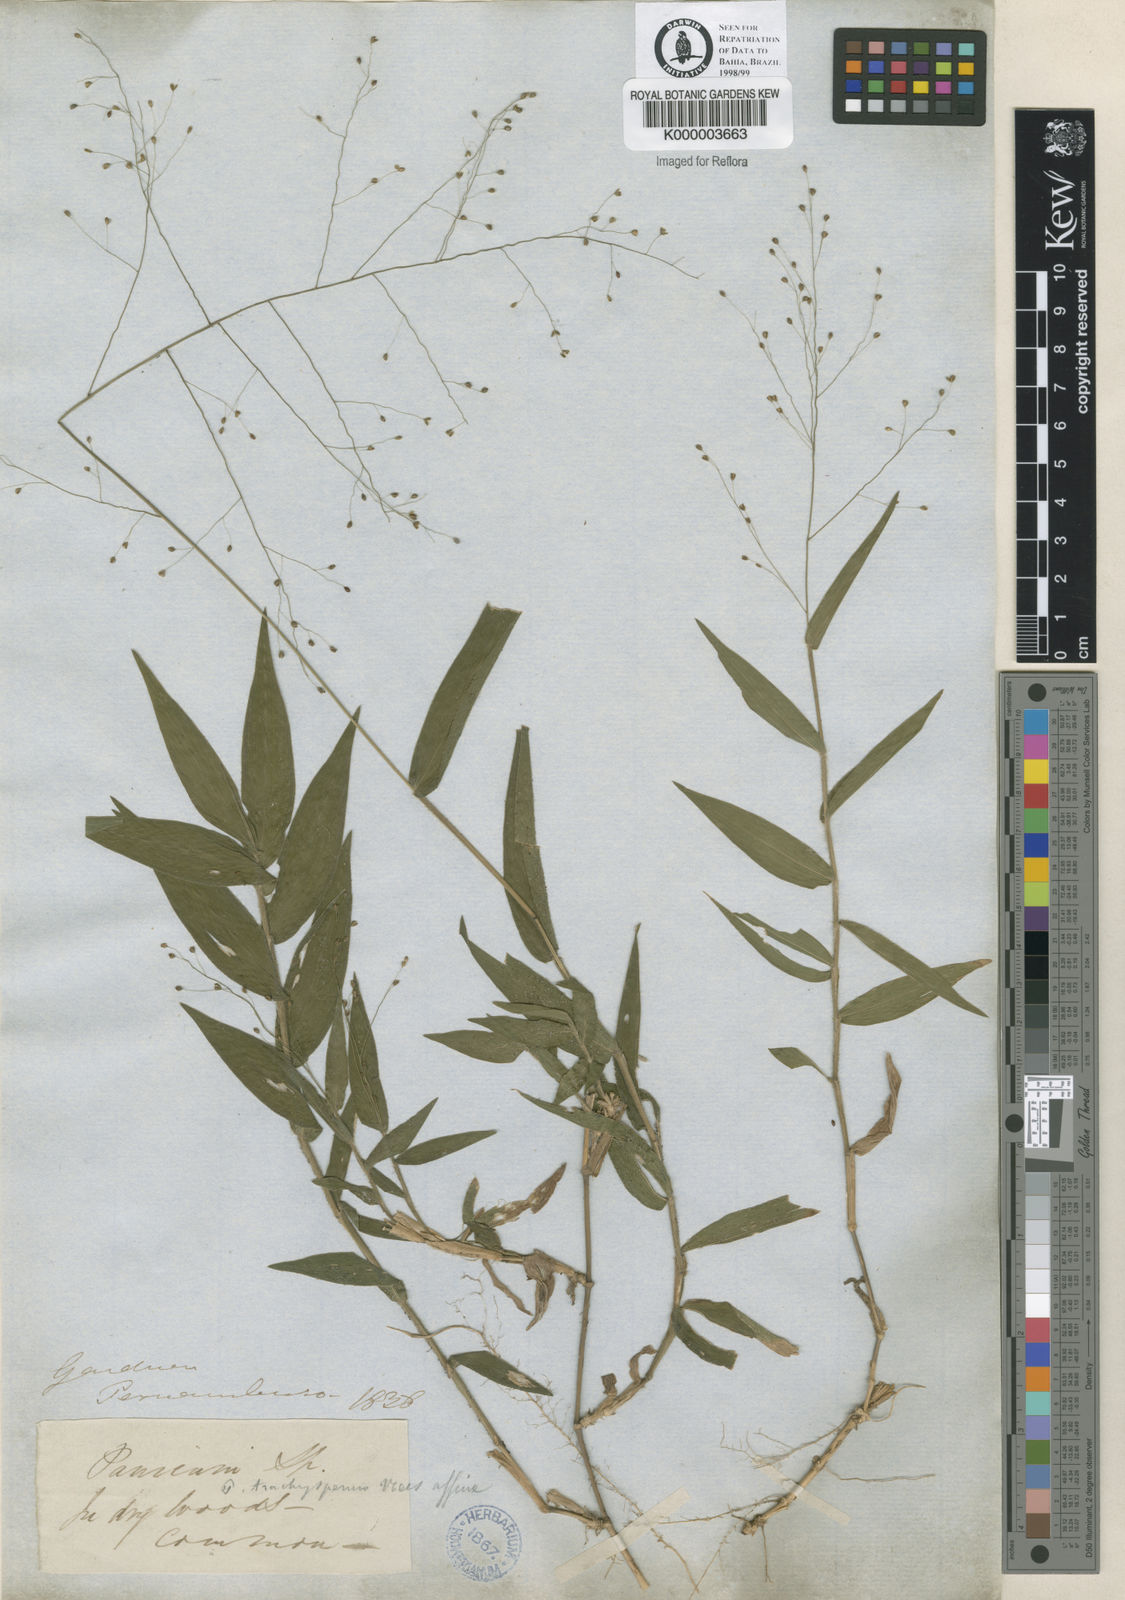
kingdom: Plantae
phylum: Tracheophyta
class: Liliopsida
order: Poales
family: Poaceae
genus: Panicum
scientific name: Panicum millegrana
